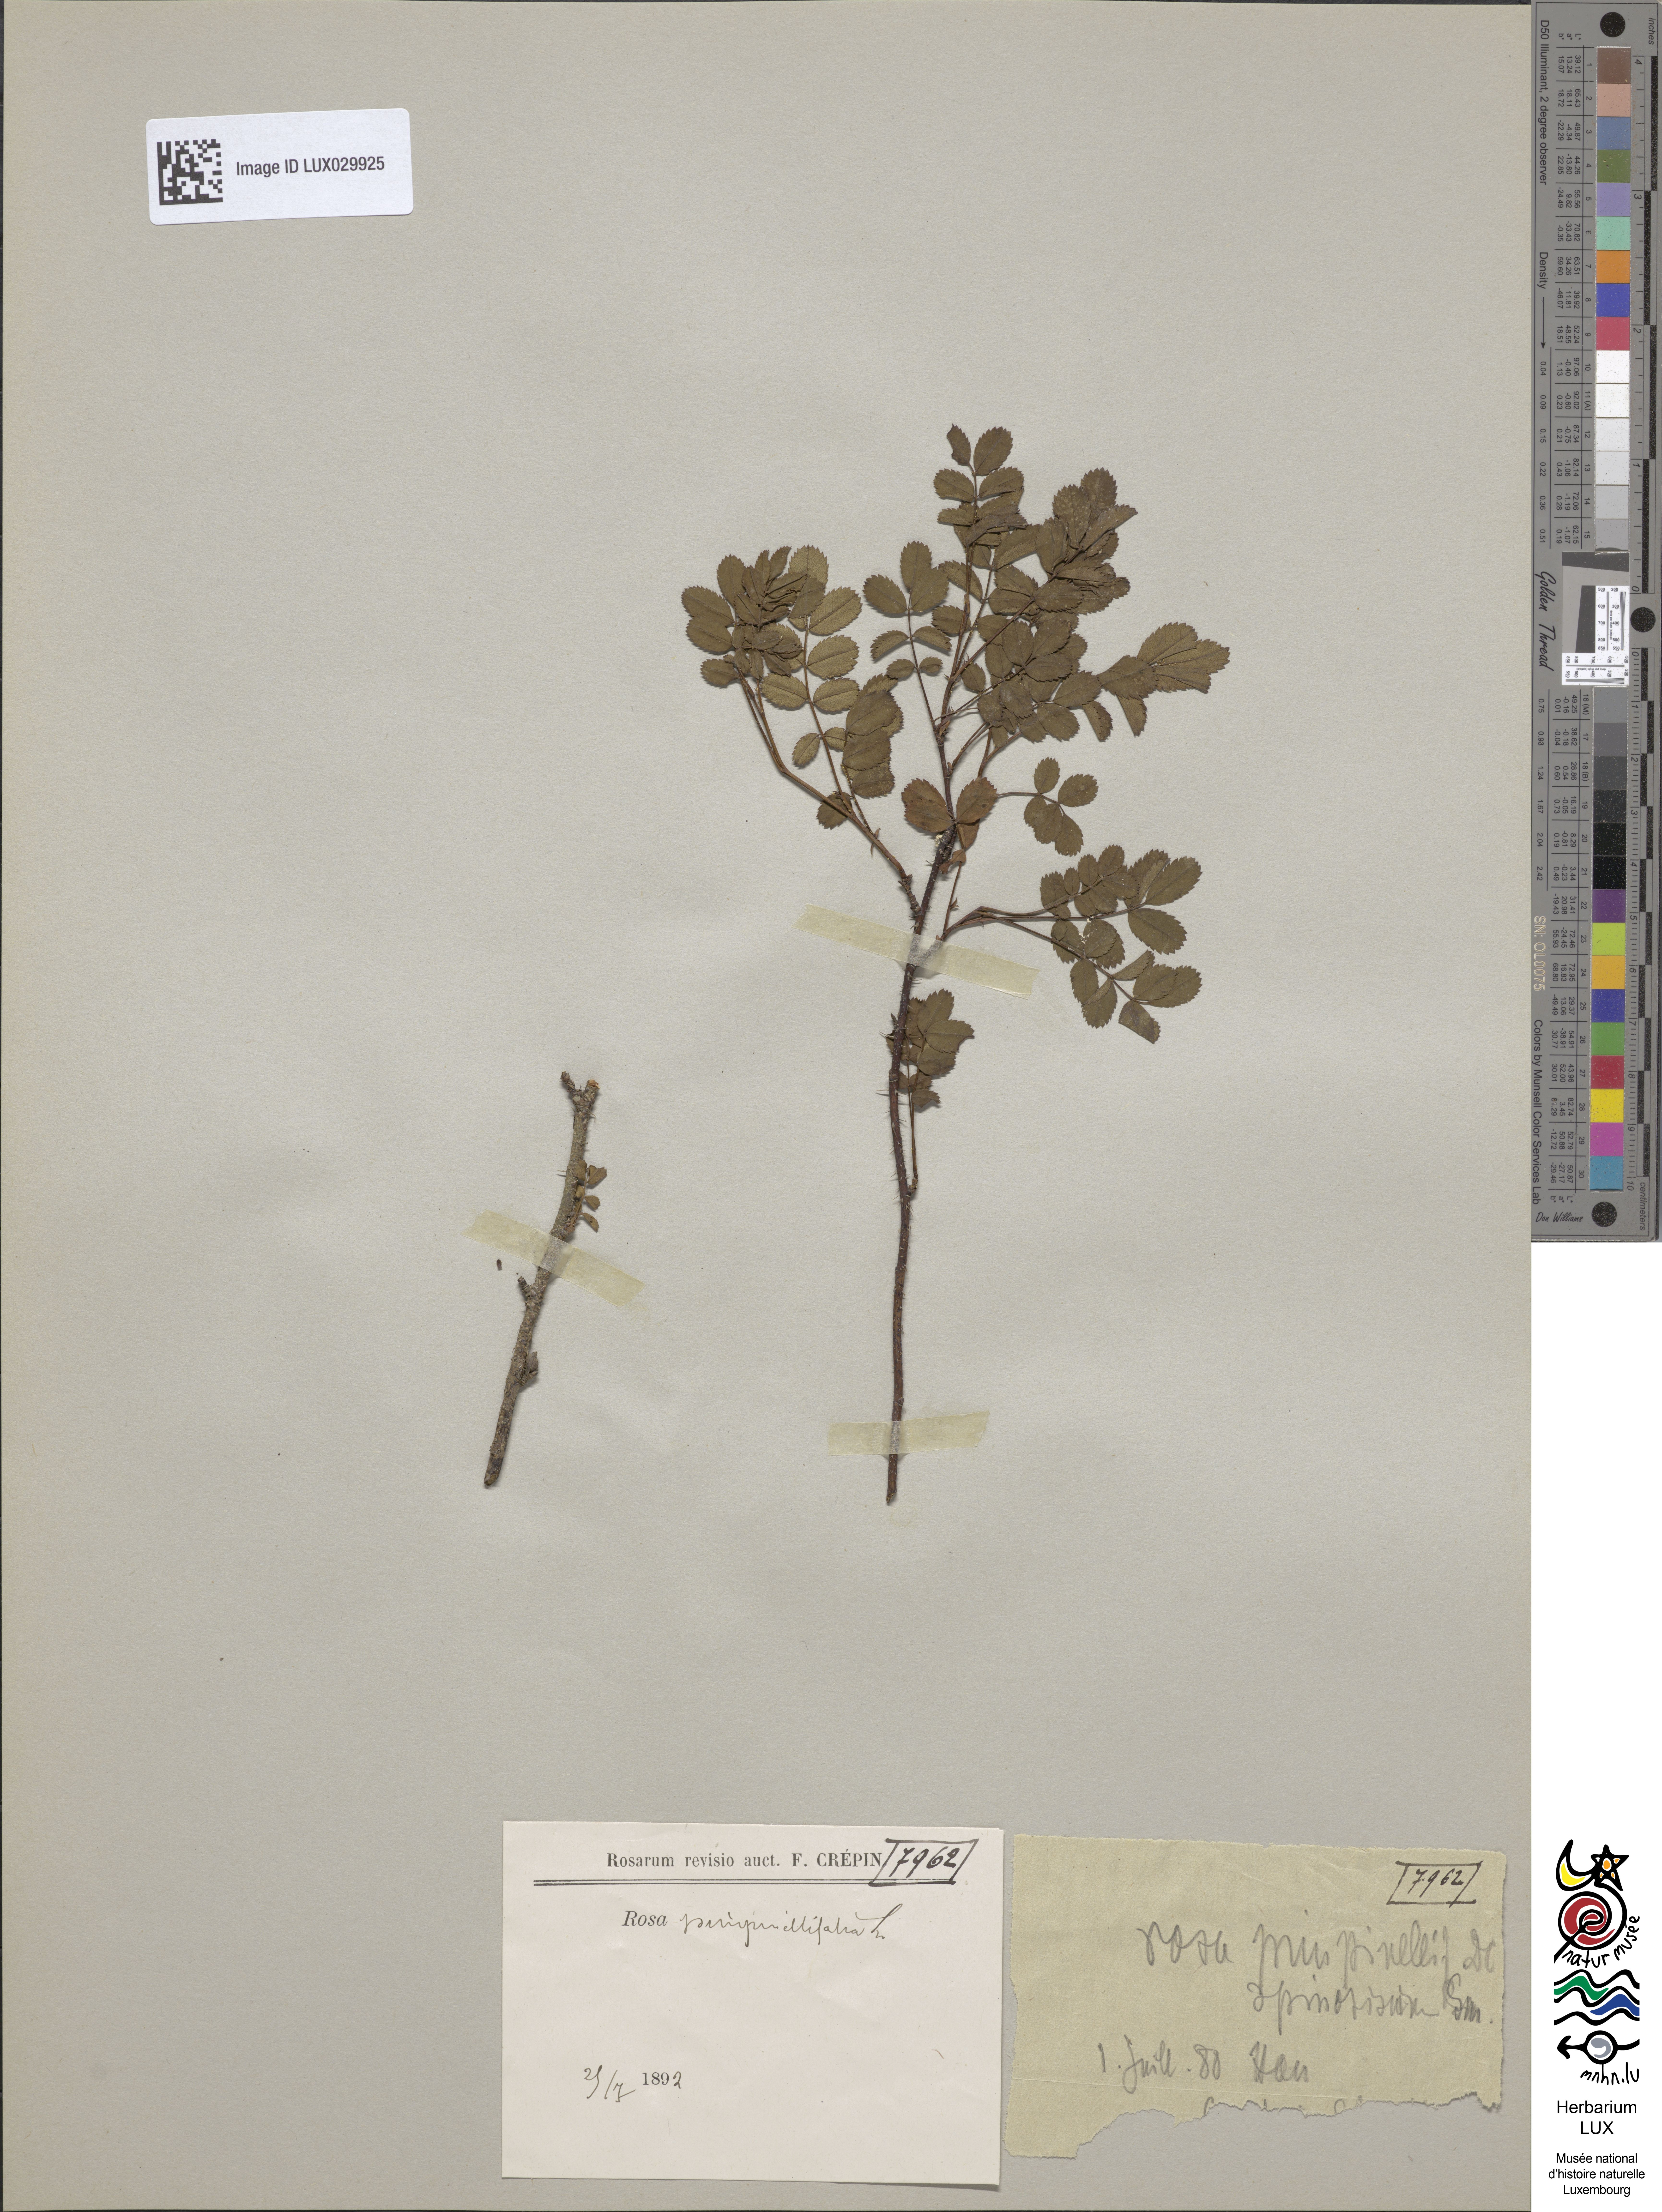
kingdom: Plantae
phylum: Tracheophyta
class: Magnoliopsida
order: Rosales
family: Rosaceae
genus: Rosa
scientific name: Rosa
